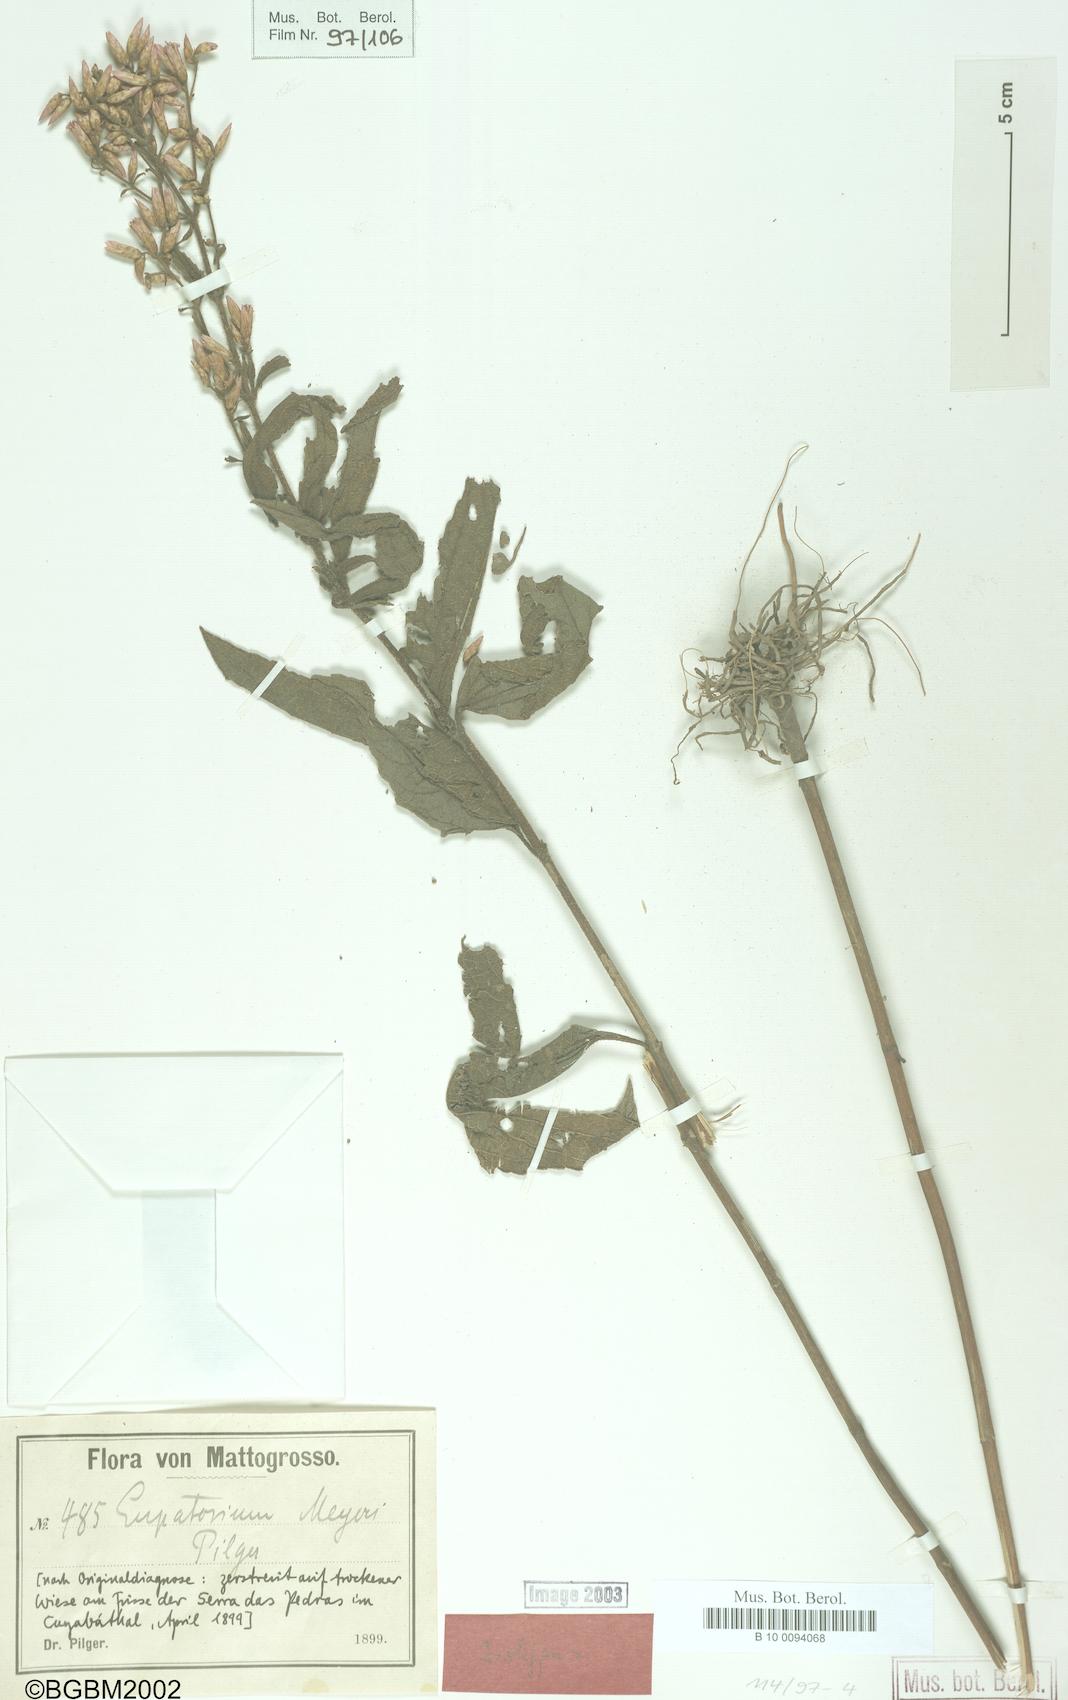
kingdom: Plantae
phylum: Tracheophyta
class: Magnoliopsida
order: Asterales
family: Asteraceae
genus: Chromolaena
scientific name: Chromolaena asperrima
